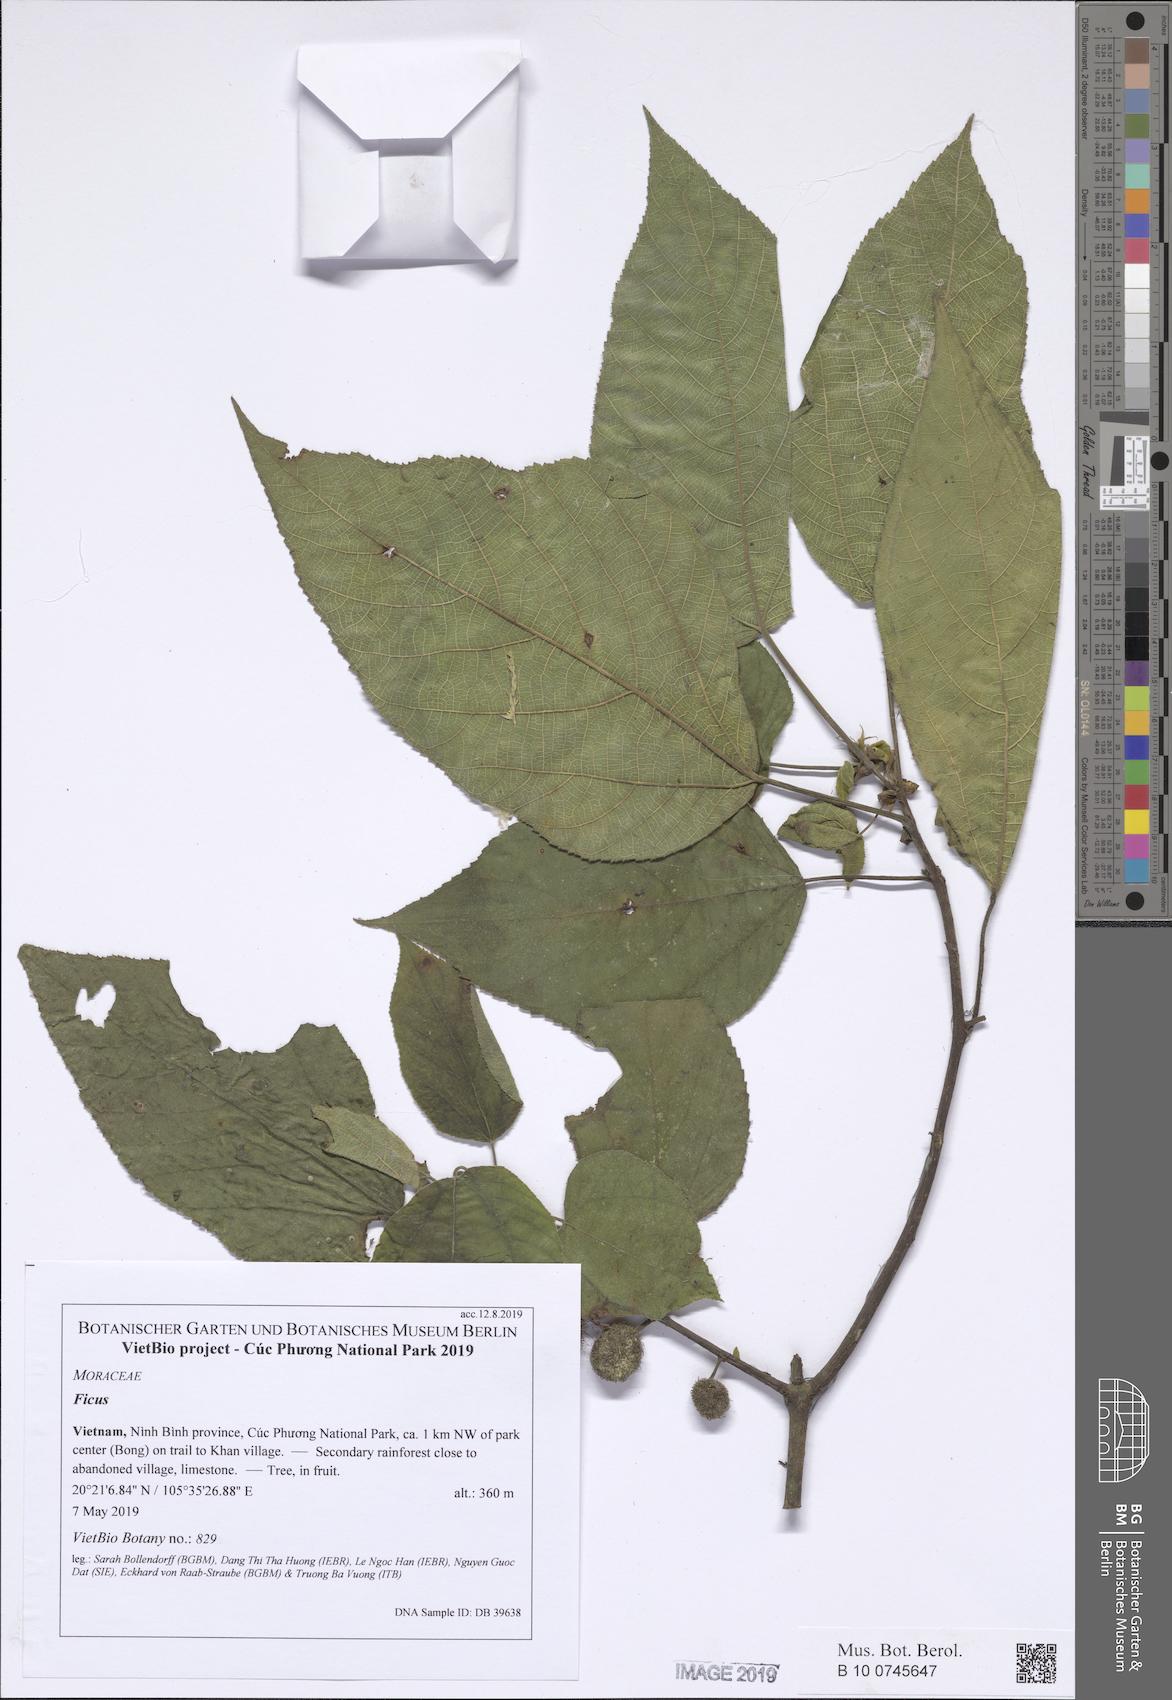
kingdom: Plantae
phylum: Tracheophyta
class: Magnoliopsida
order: Rosales
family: Moraceae
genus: Broussonetia
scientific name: Broussonetia papyrifera
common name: Paper mulberry
